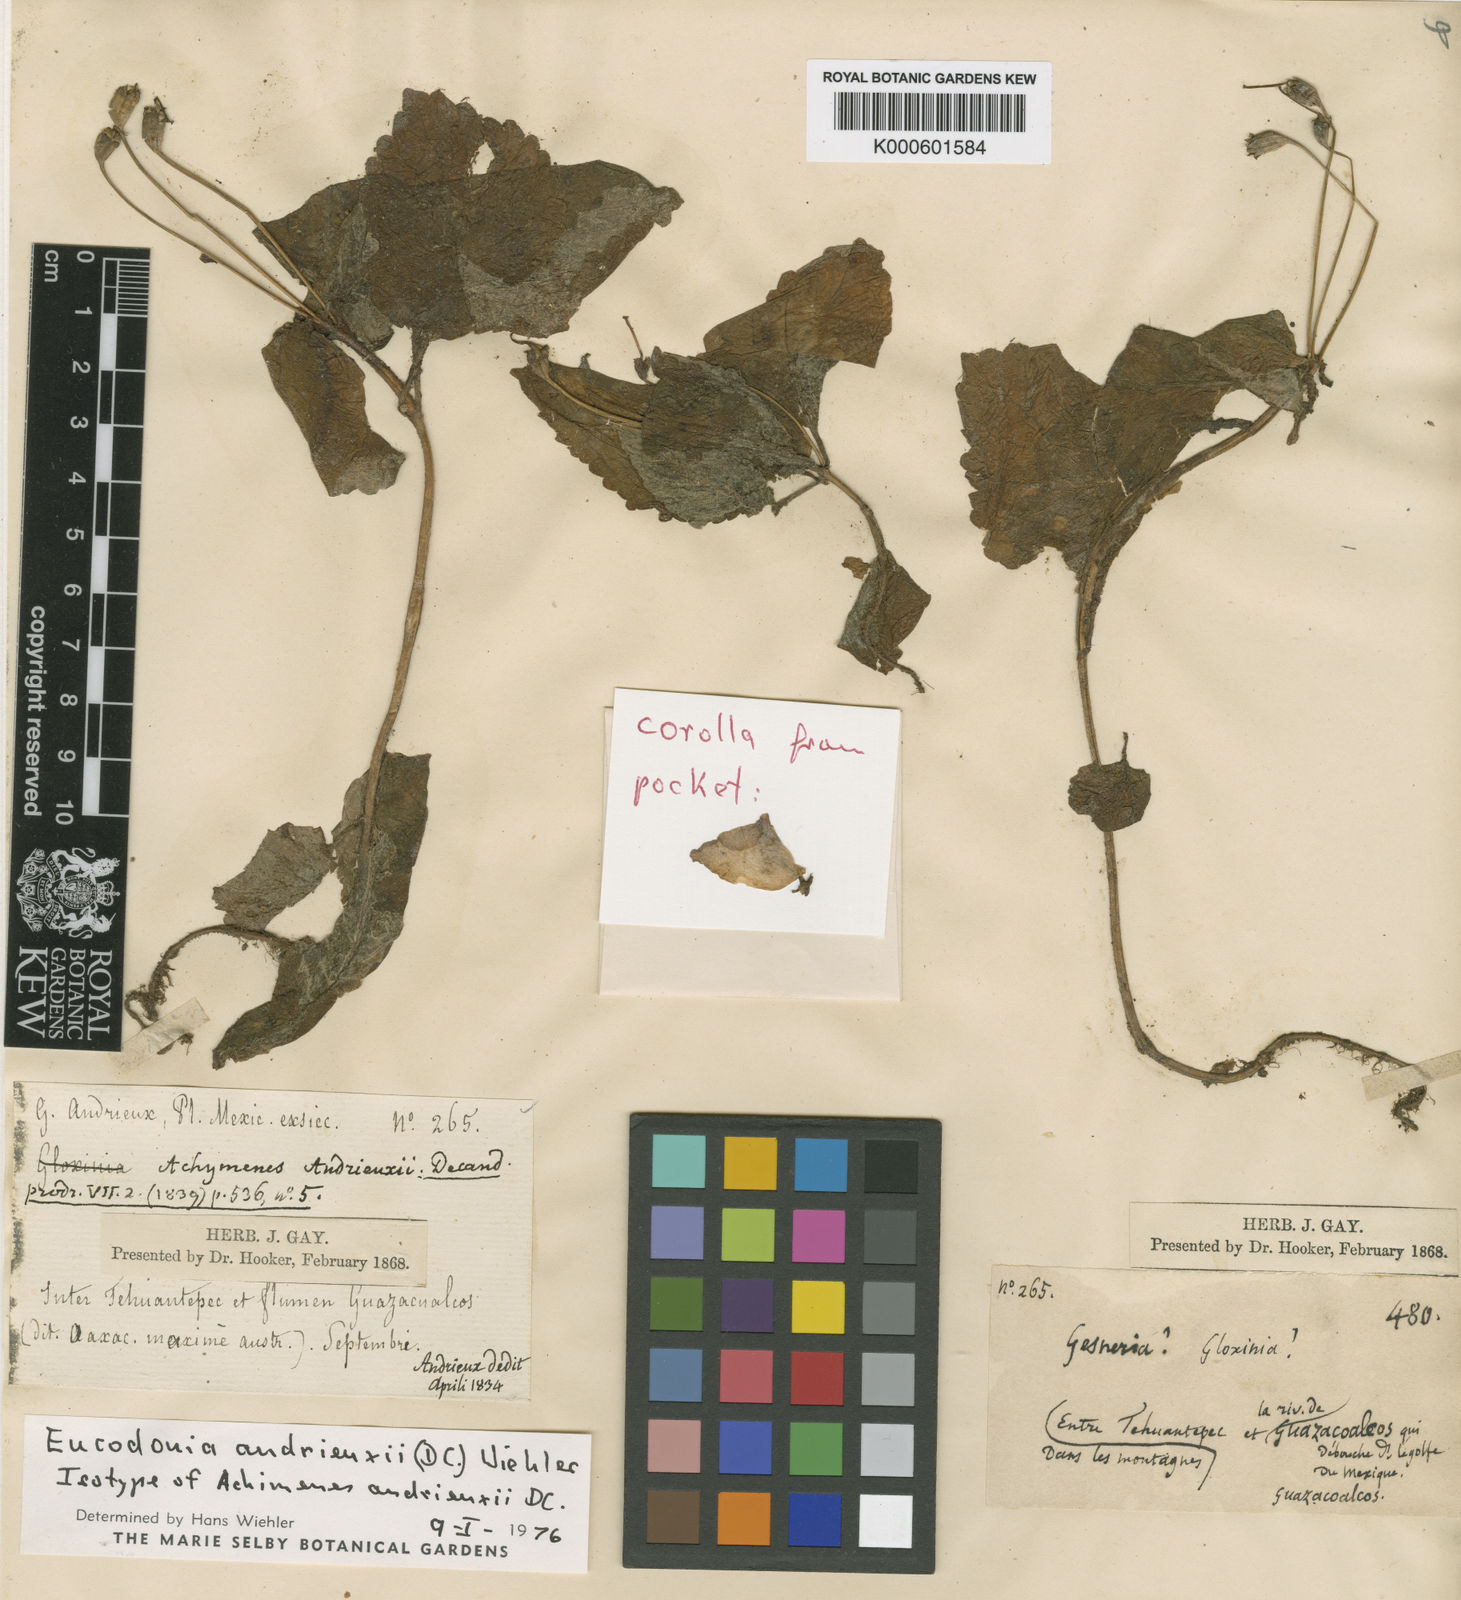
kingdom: Plantae
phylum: Tracheophyta
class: Magnoliopsida
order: Lamiales
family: Gesneriaceae
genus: Eucodonia
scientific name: Eucodonia andrieuxii
